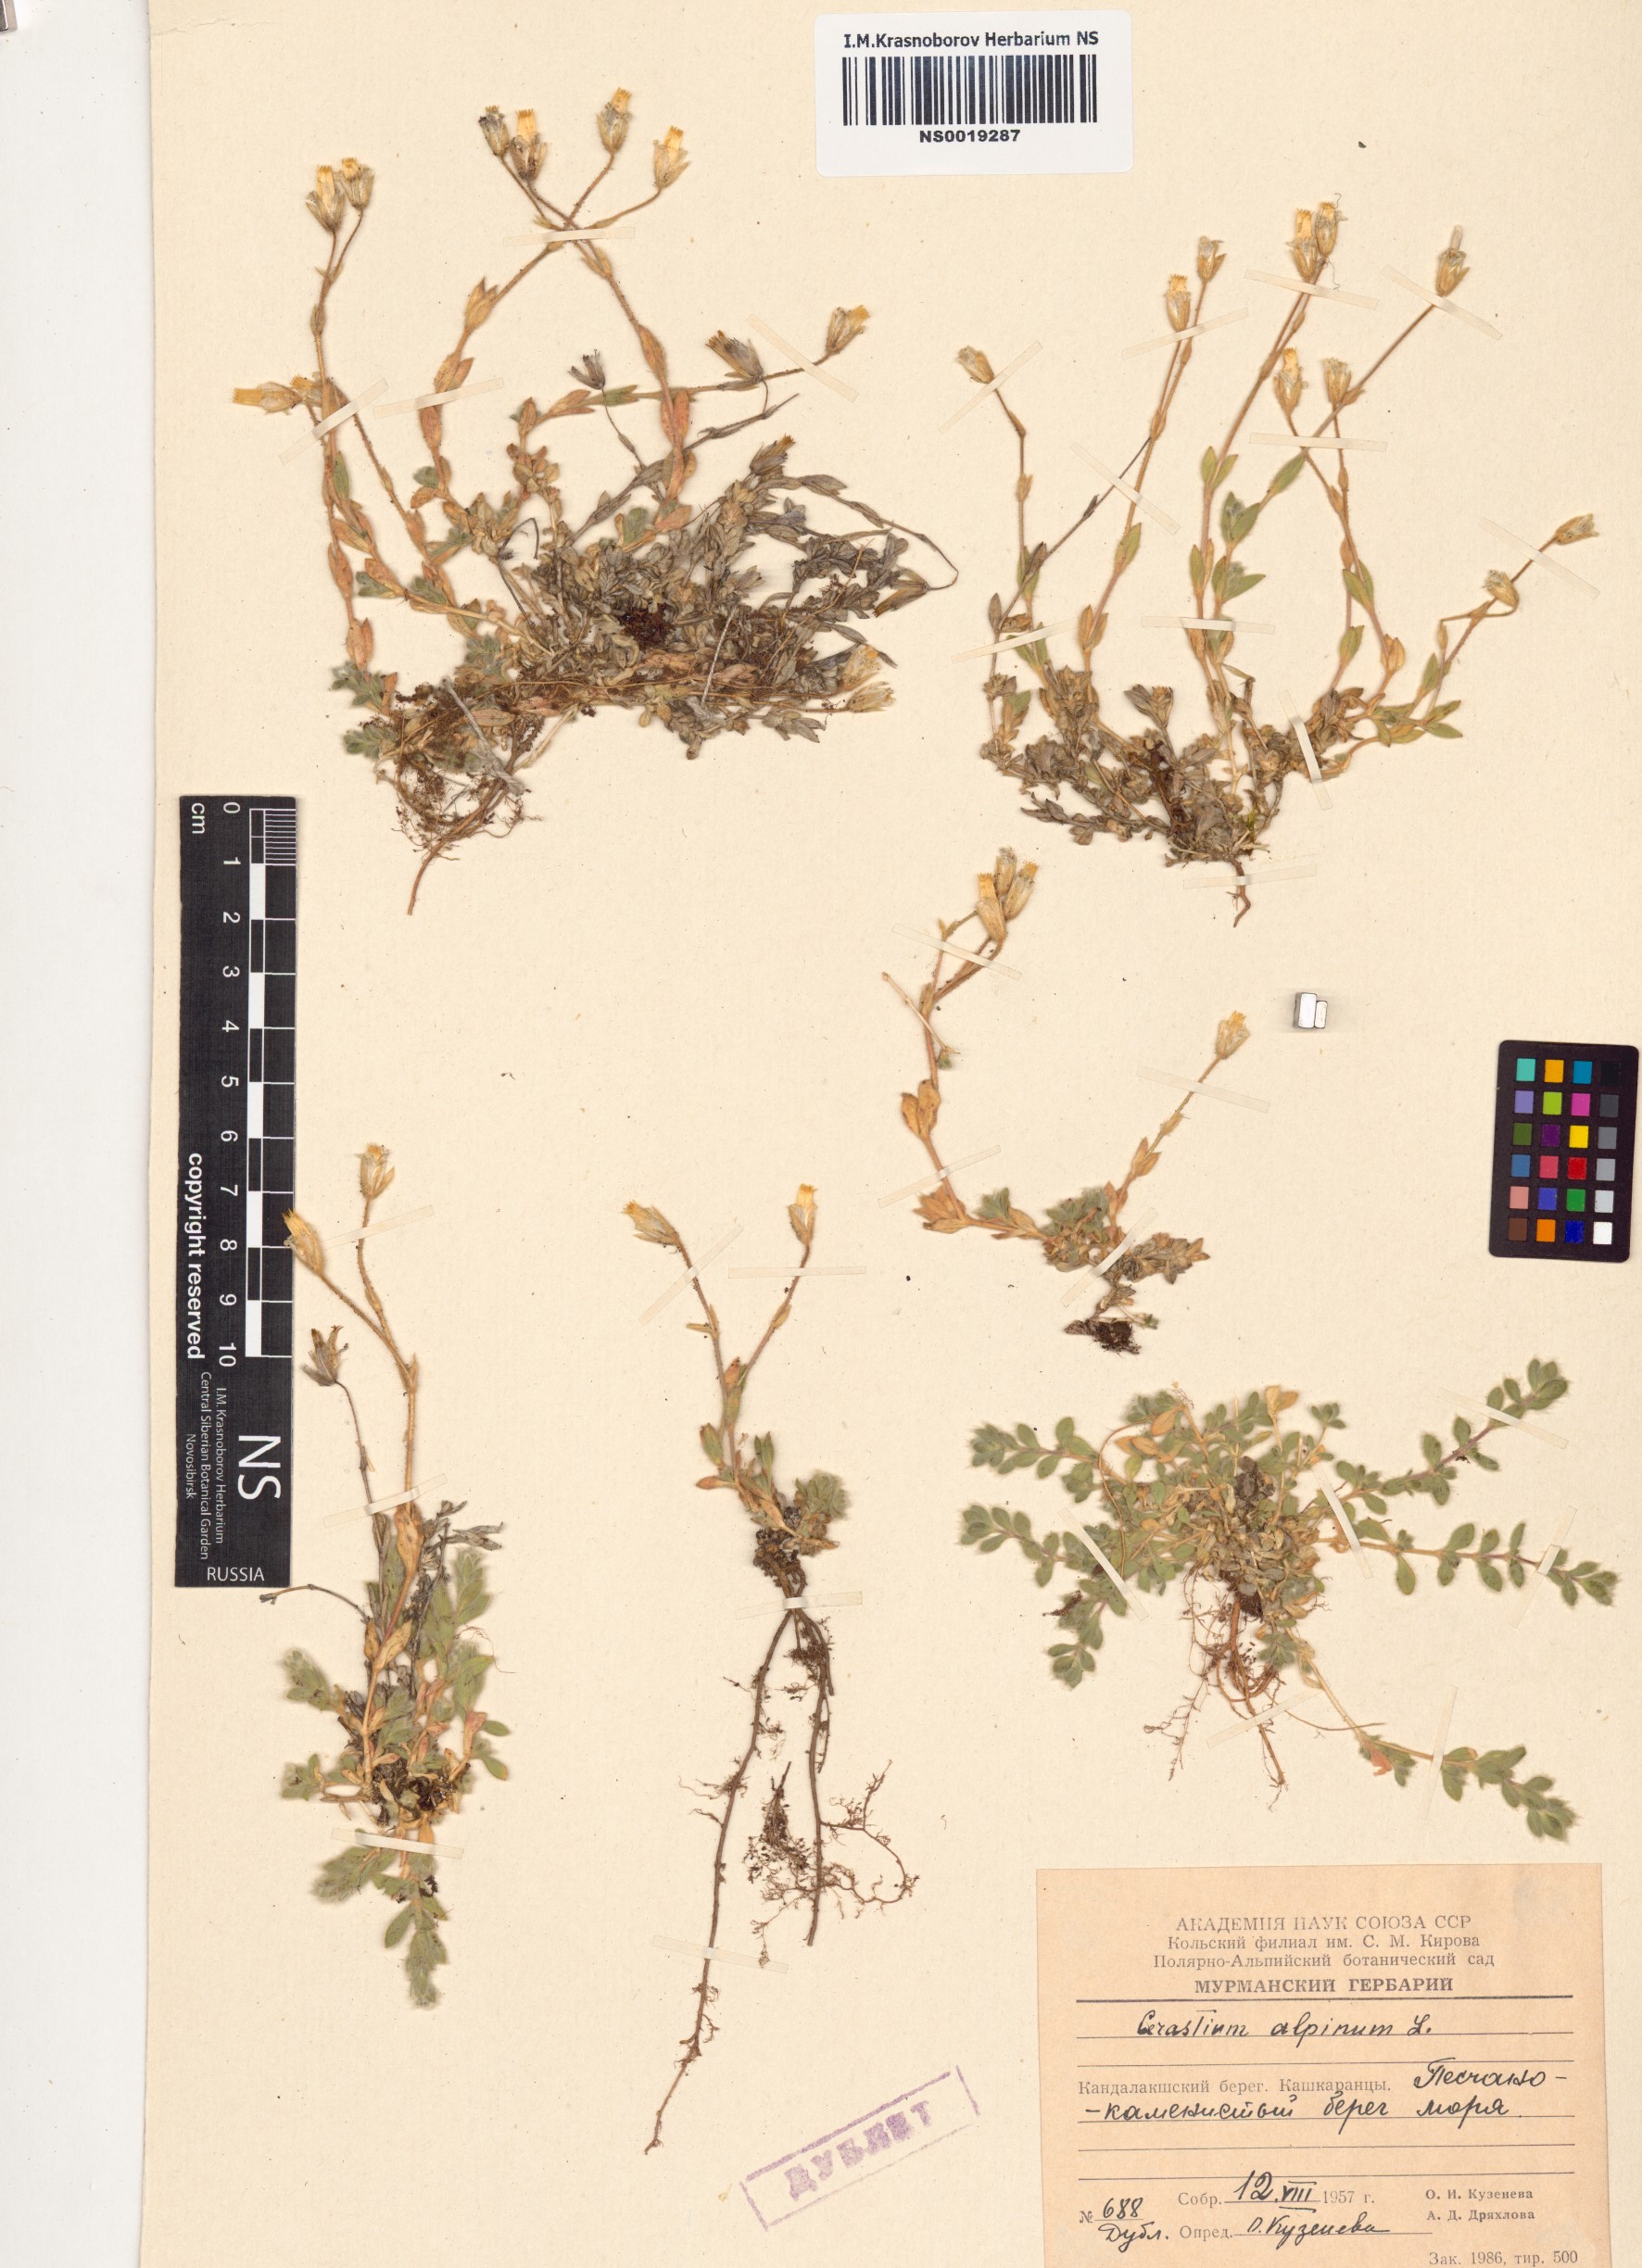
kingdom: Plantae
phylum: Tracheophyta
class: Magnoliopsida
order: Caryophyllales
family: Caryophyllaceae
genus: Cerastium
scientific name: Cerastium alpinum
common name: Alpine mouse-ear
